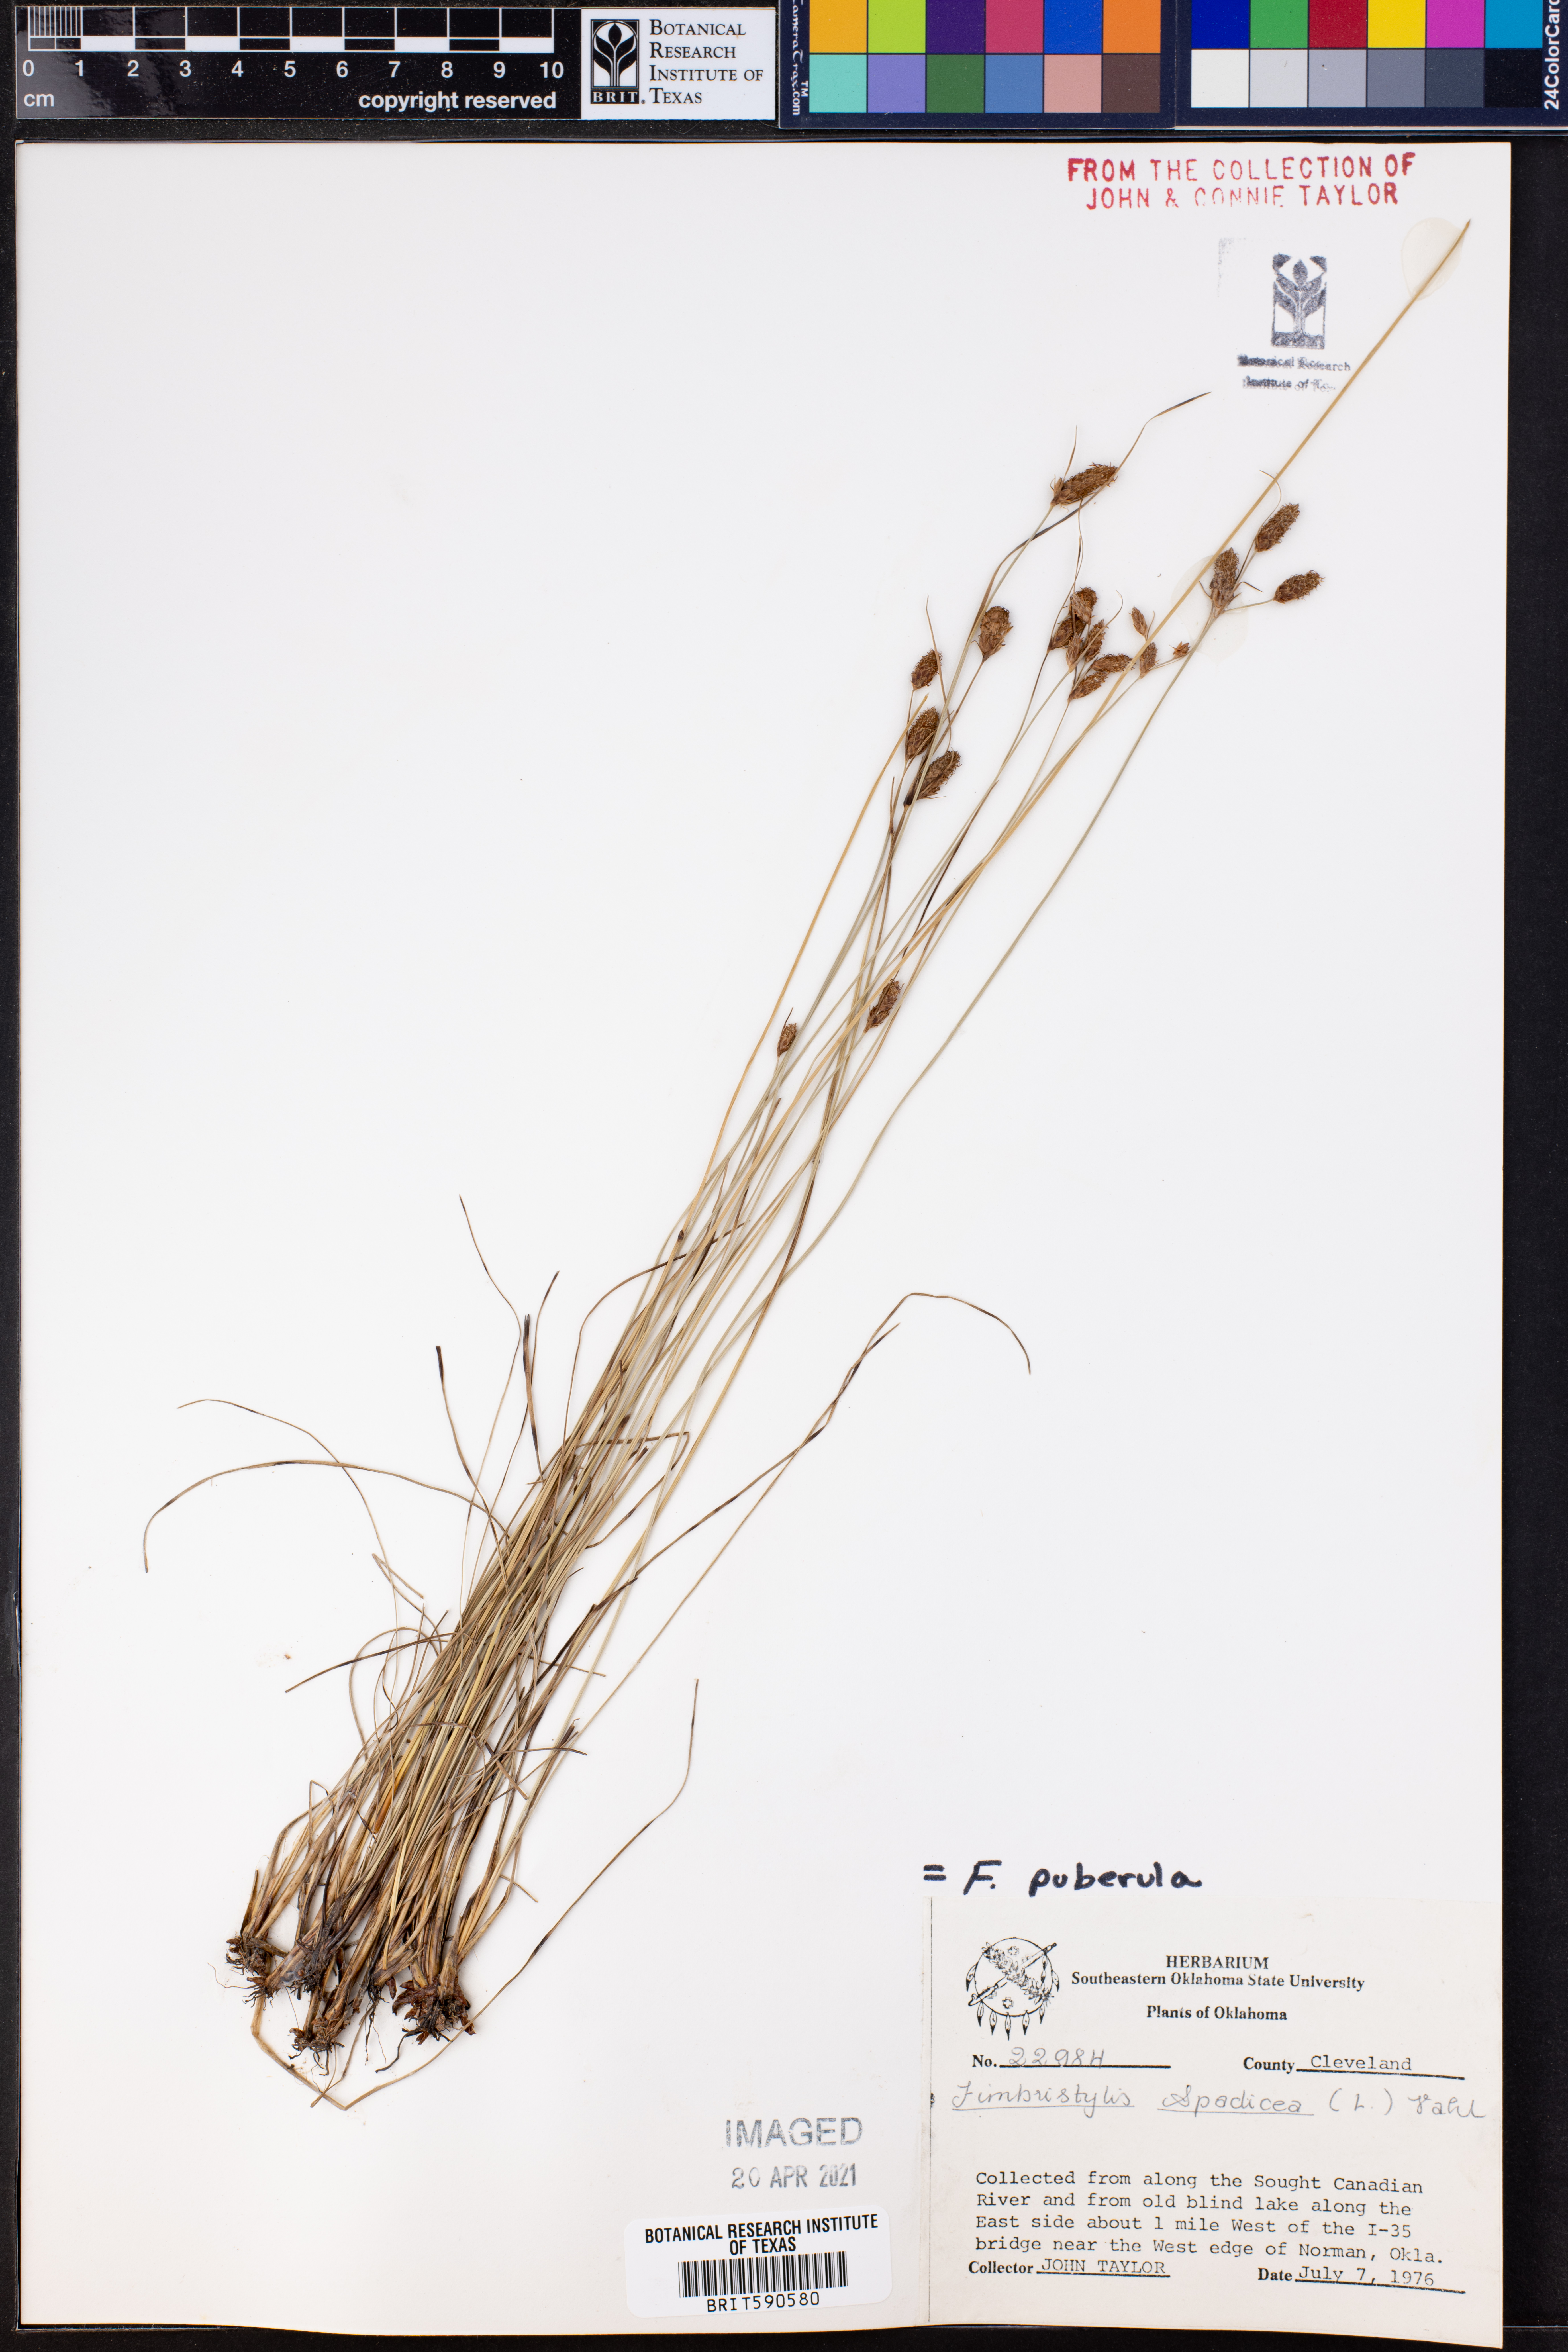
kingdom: Plantae
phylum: Tracheophyta
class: Liliopsida
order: Poales
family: Cyperaceae
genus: Fimbristylis
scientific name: Fimbristylis puberula
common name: Hairy fimbristylis
